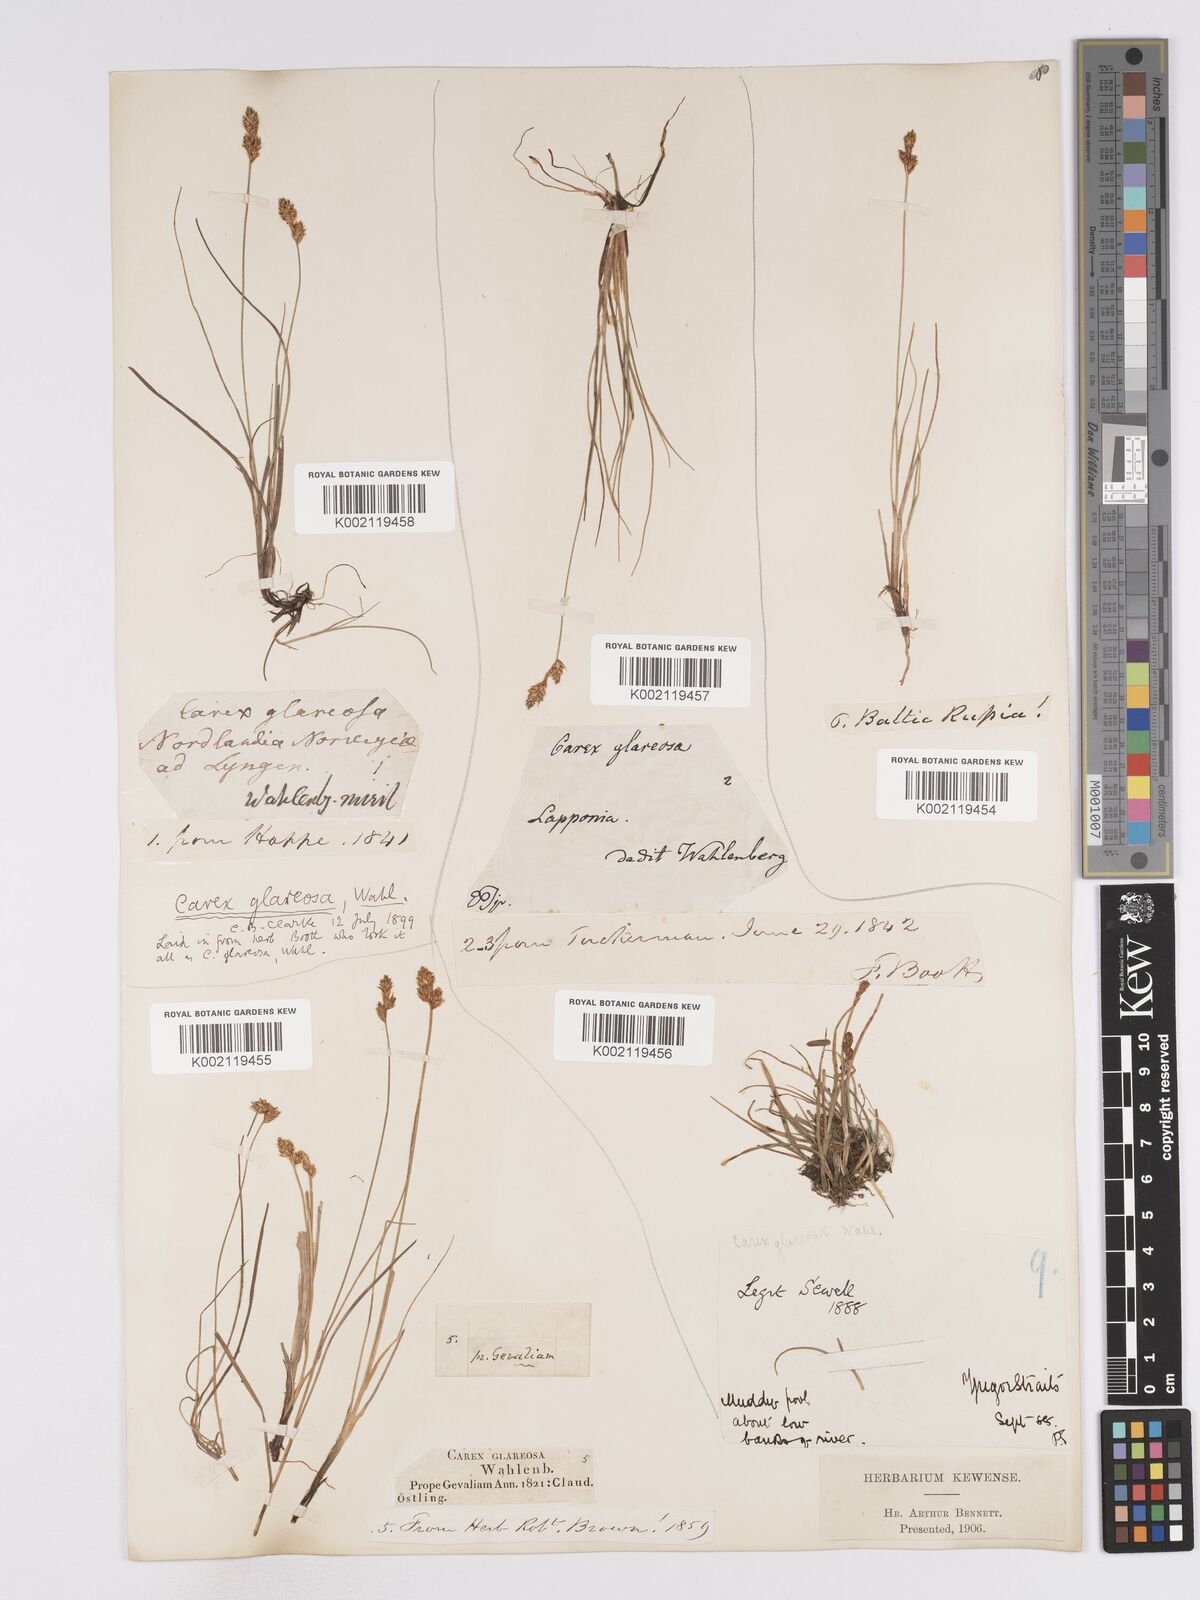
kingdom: Plantae
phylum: Tracheophyta
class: Liliopsida
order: Poales
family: Cyperaceae
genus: Carex
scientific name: Carex glareosa
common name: Clustered sedge
